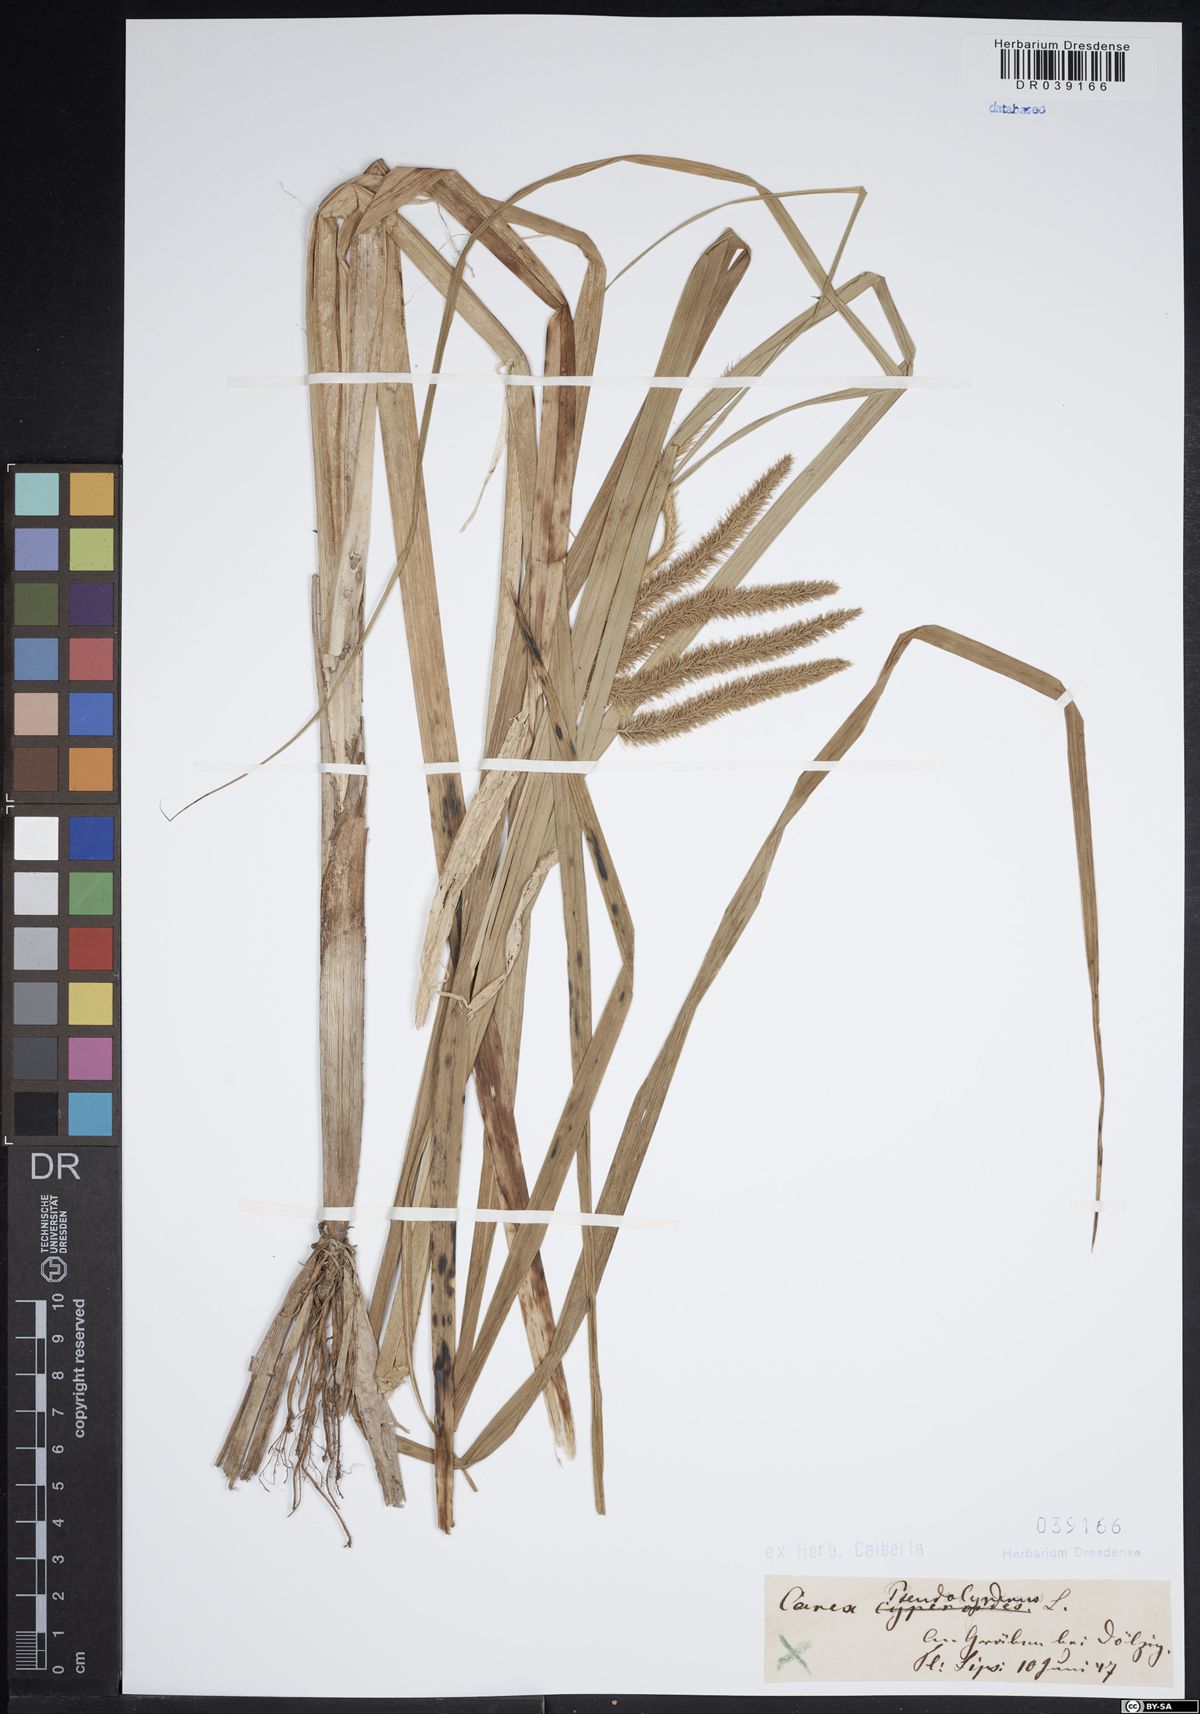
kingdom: Plantae
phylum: Tracheophyta
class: Liliopsida
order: Poales
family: Cyperaceae
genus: Carex
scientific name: Carex pseudocyperus
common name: Cyperus sedge
